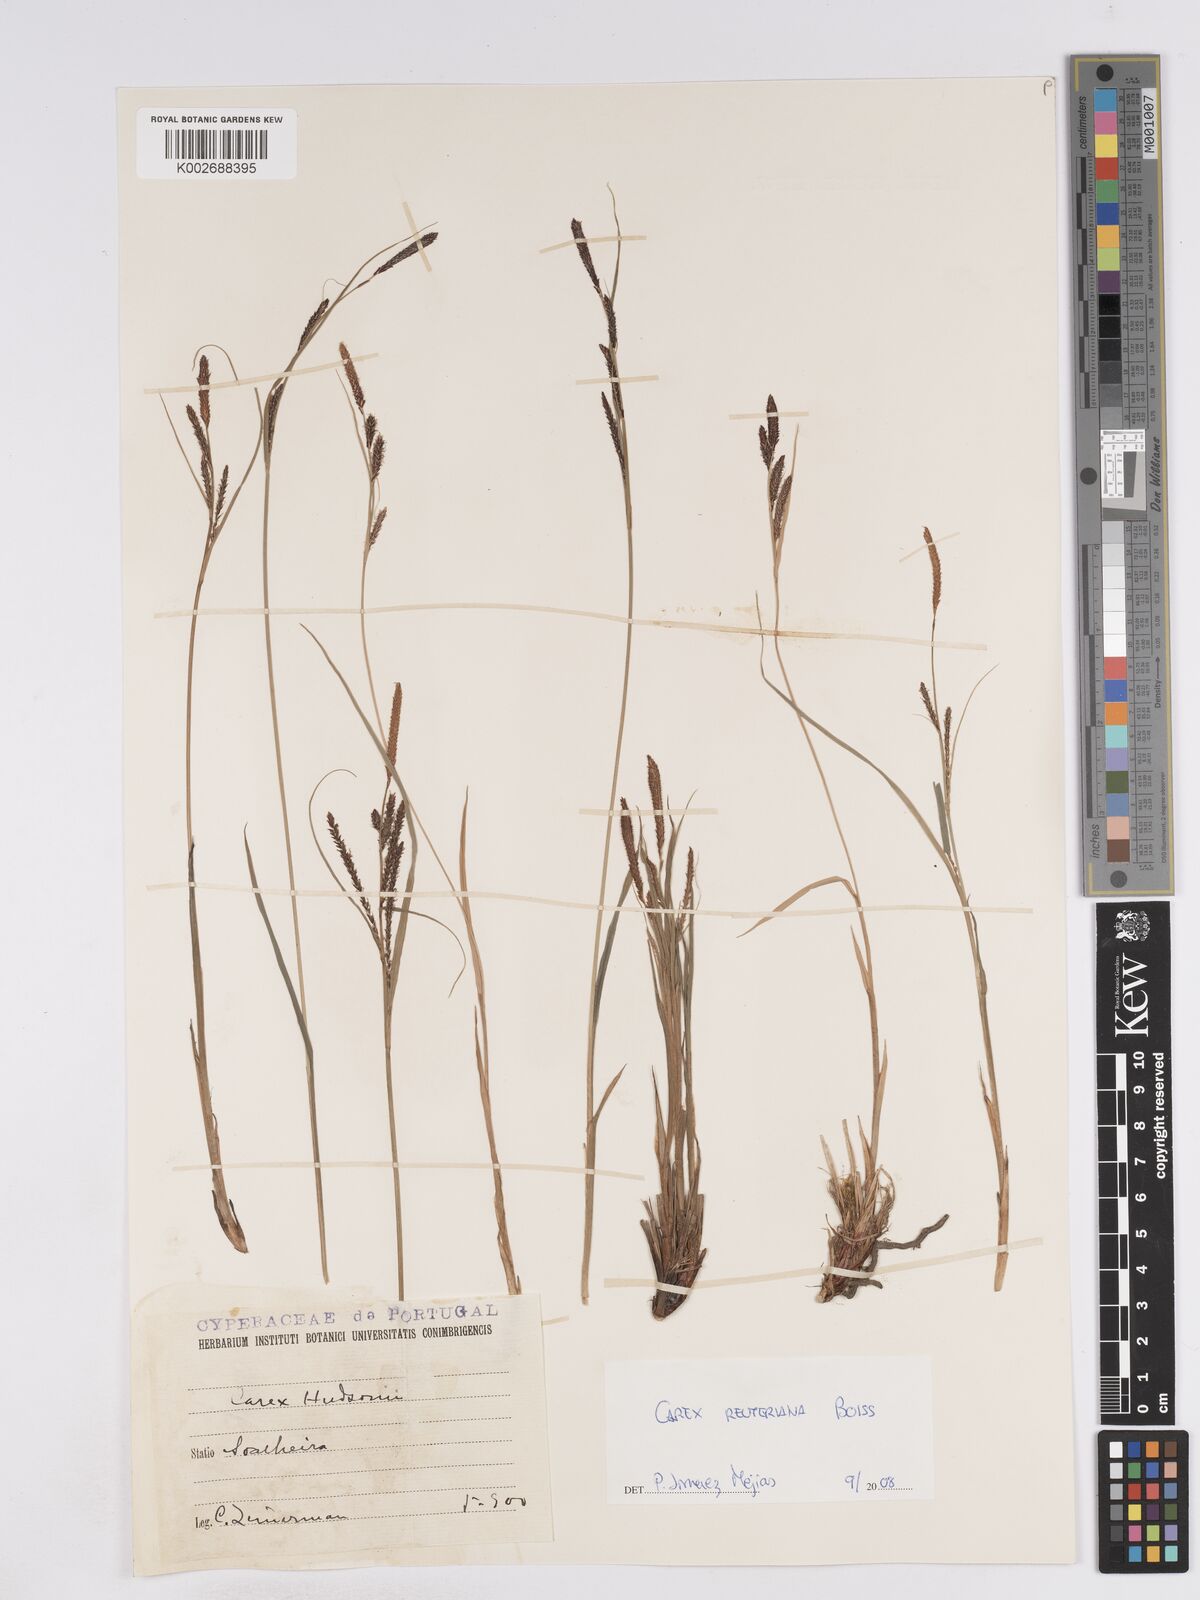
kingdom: Plantae
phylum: Tracheophyta
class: Liliopsida
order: Poales
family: Cyperaceae
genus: Carex
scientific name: Carex reuteriana
